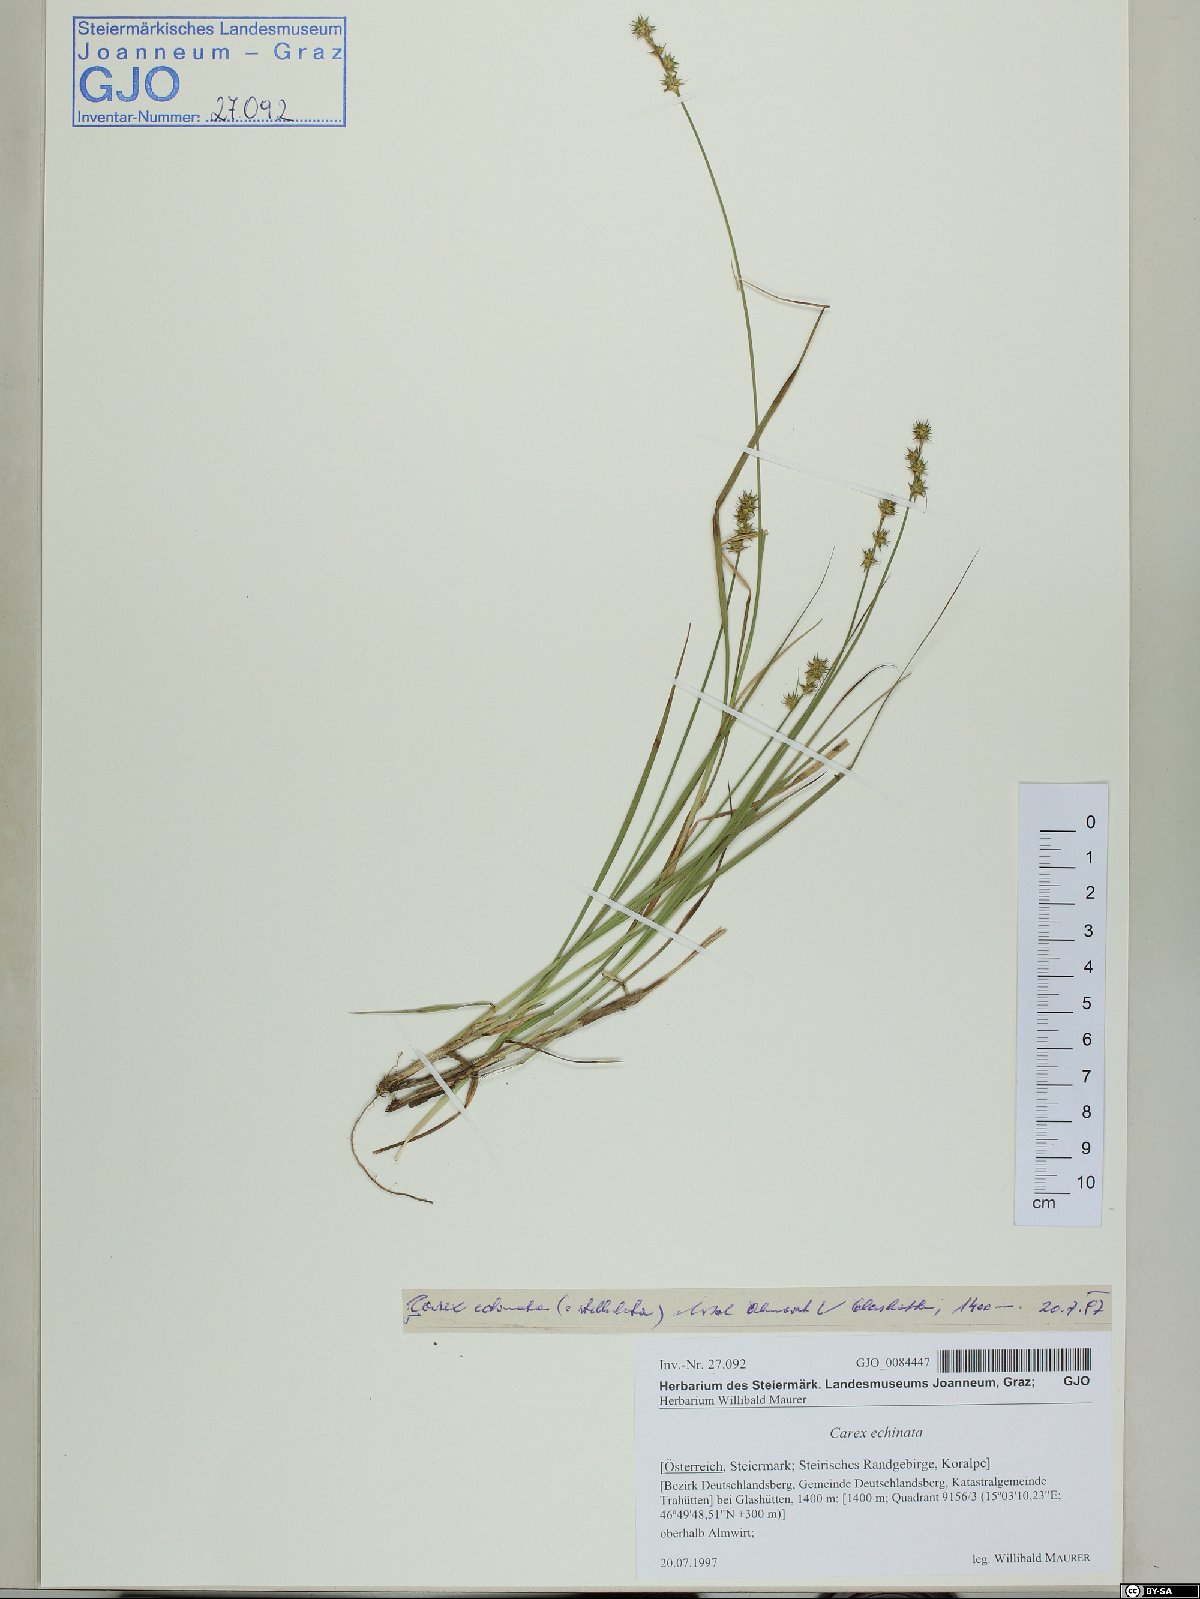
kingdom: Plantae
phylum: Tracheophyta
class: Liliopsida
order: Poales
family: Cyperaceae
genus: Carex
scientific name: Carex echinata
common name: Star sedge
